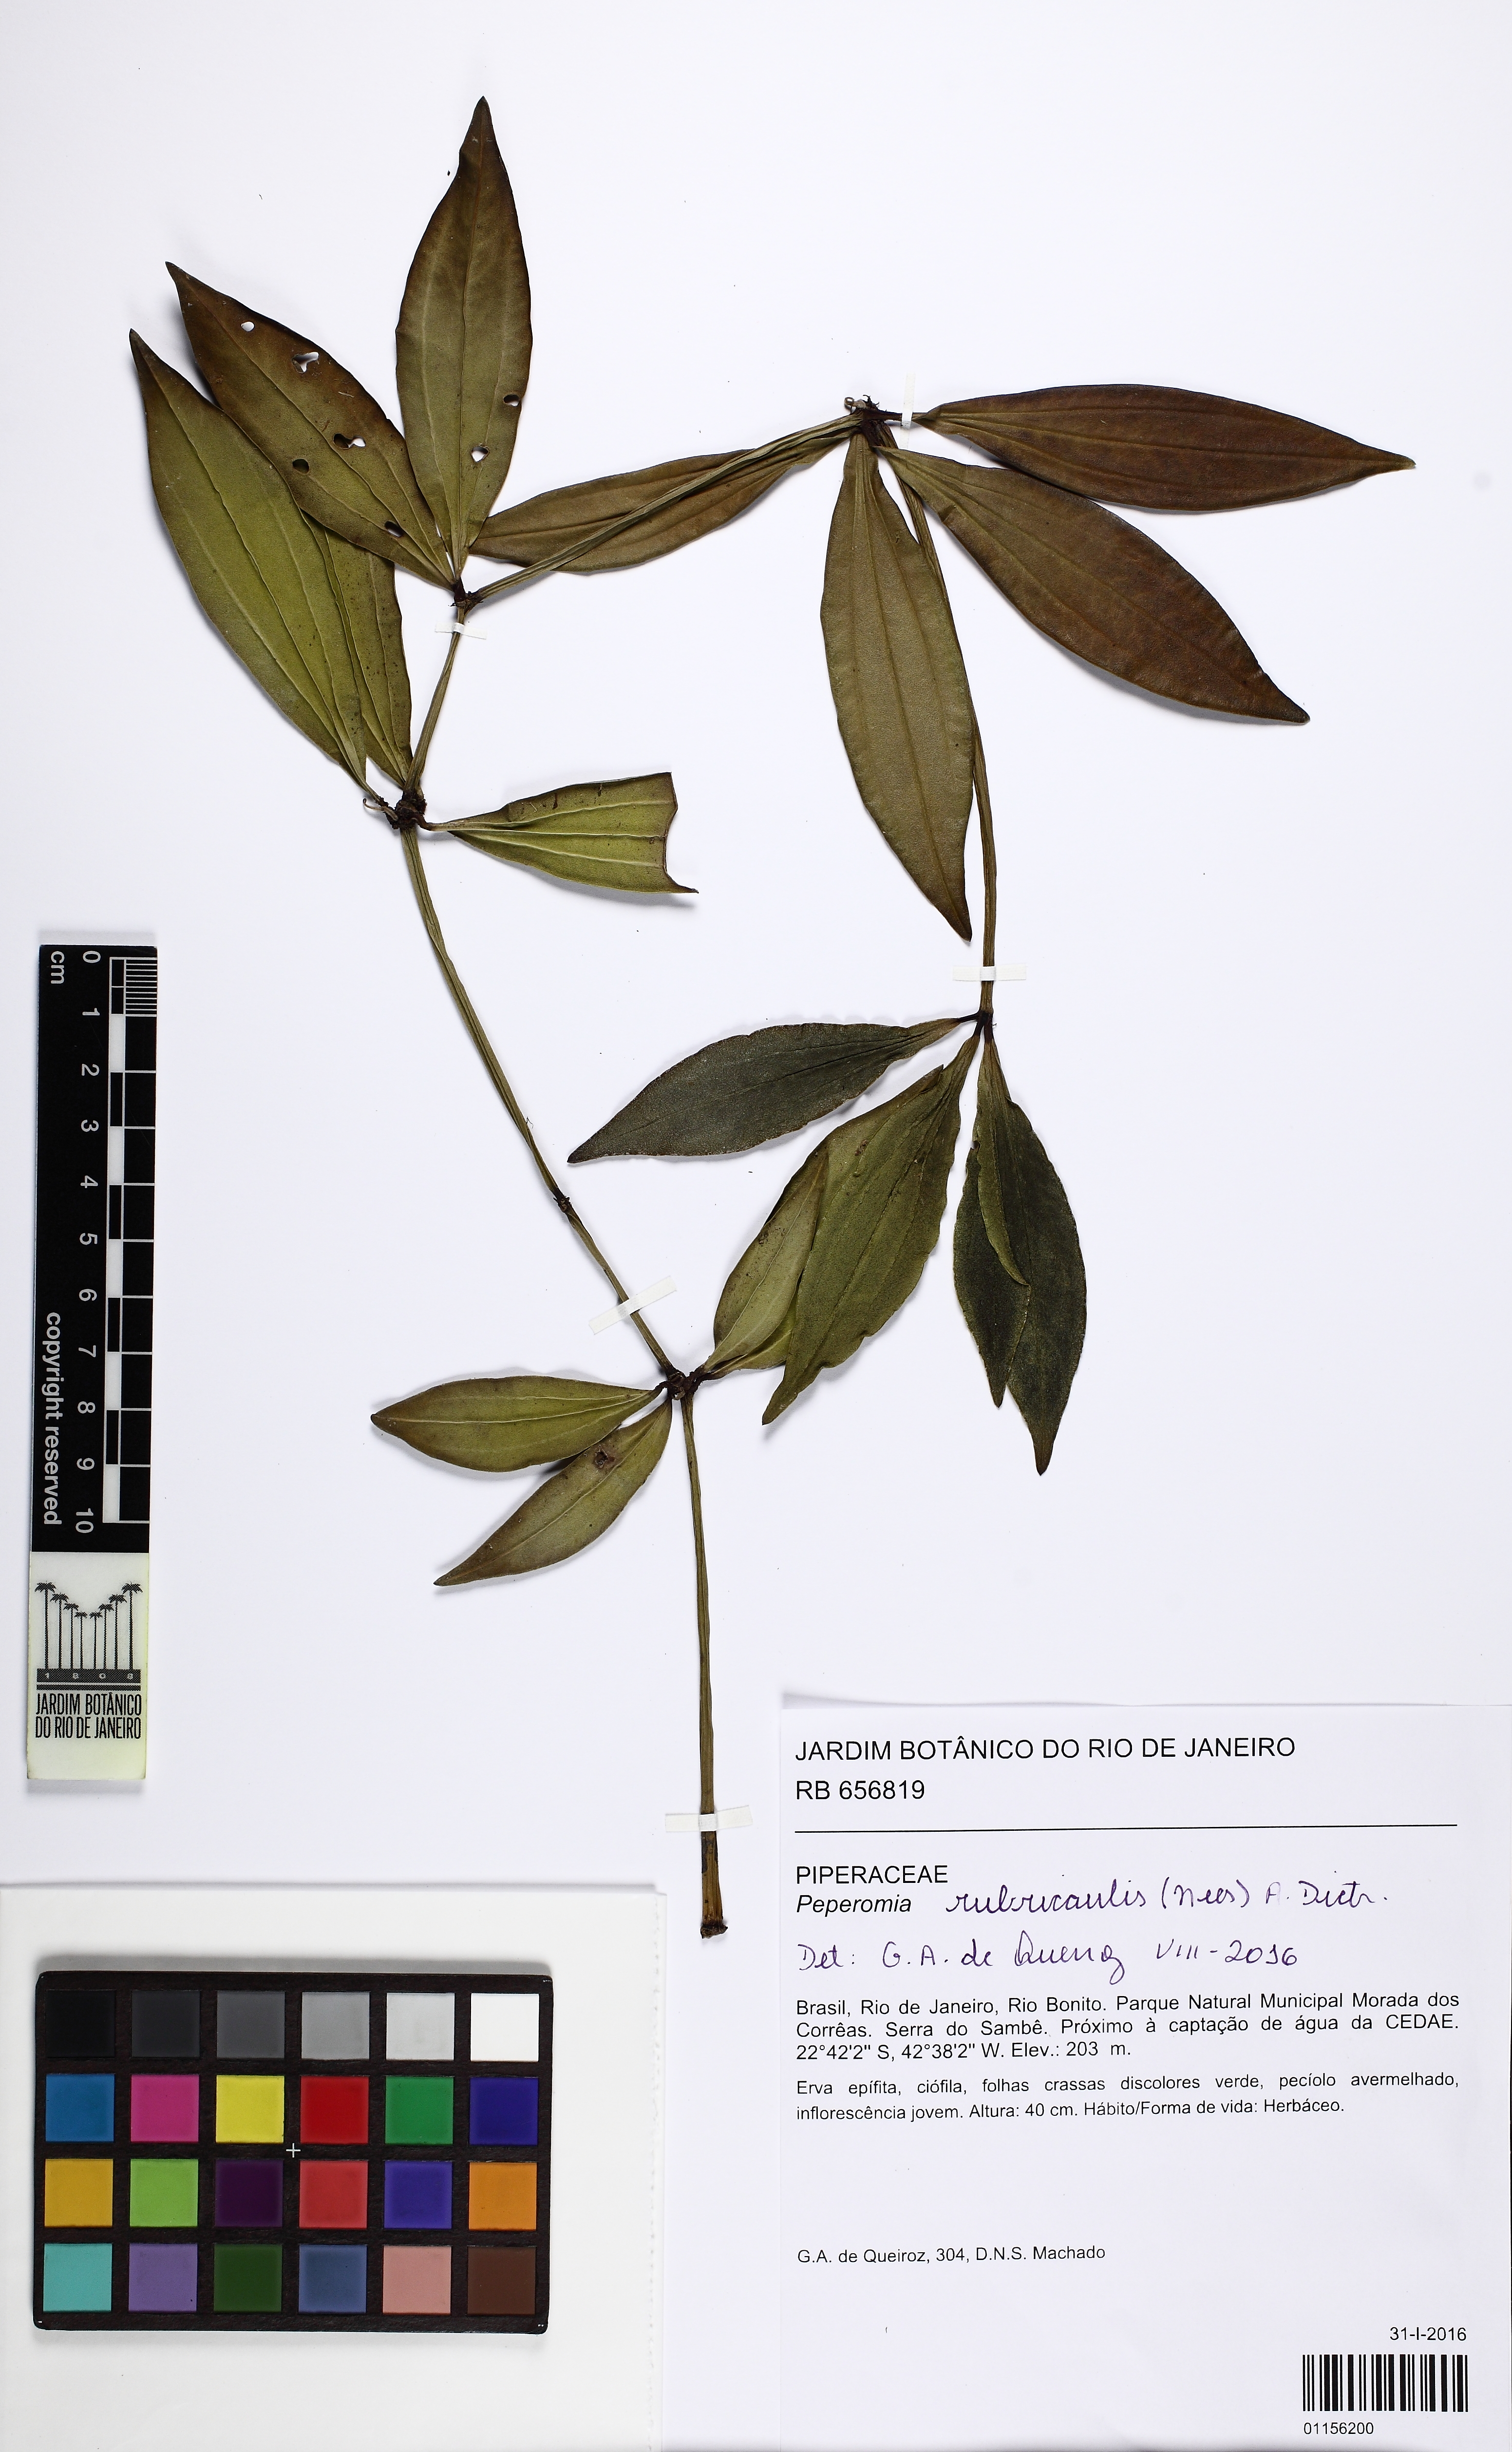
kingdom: Plantae
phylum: Tracheophyta
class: Magnoliopsida
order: Piperales
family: Piperaceae
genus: Peperomia
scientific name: Peperomia rubricaulis
